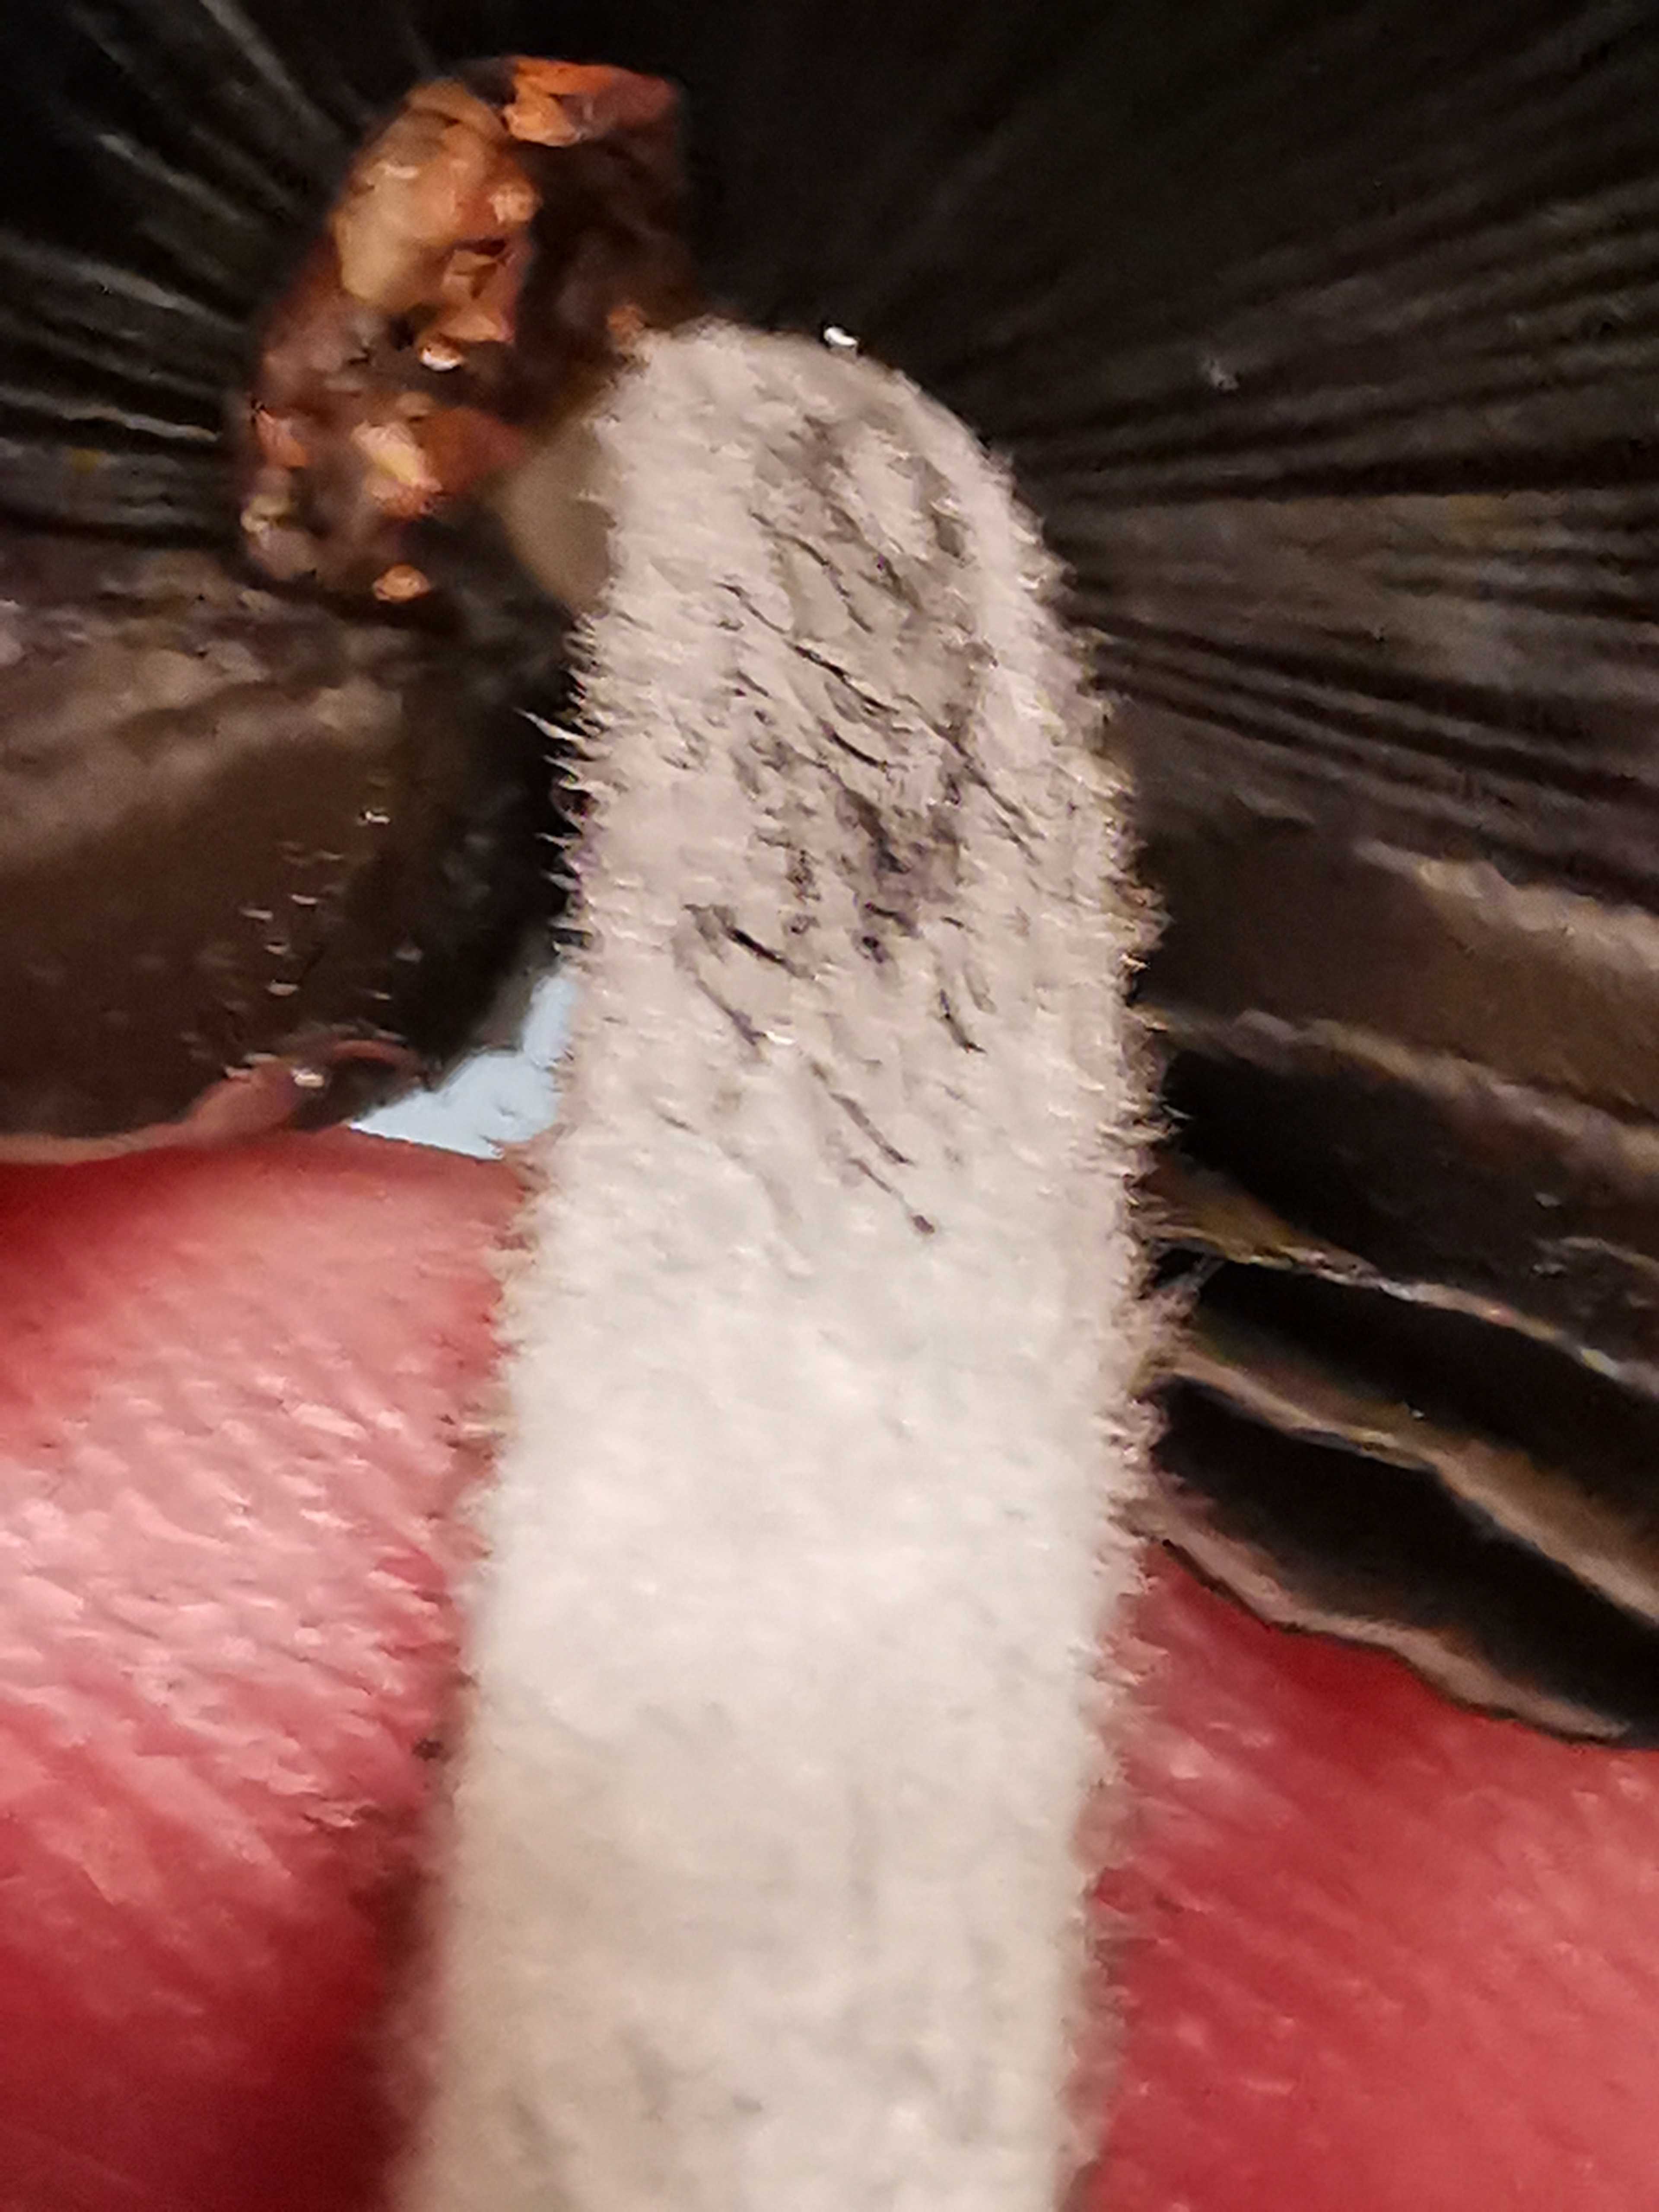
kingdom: Fungi
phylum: Basidiomycota
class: Agaricomycetes
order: Agaricales
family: Psathyrellaceae
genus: Coprinopsis
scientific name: Coprinopsis lagopus
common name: dunstokket blækhat
